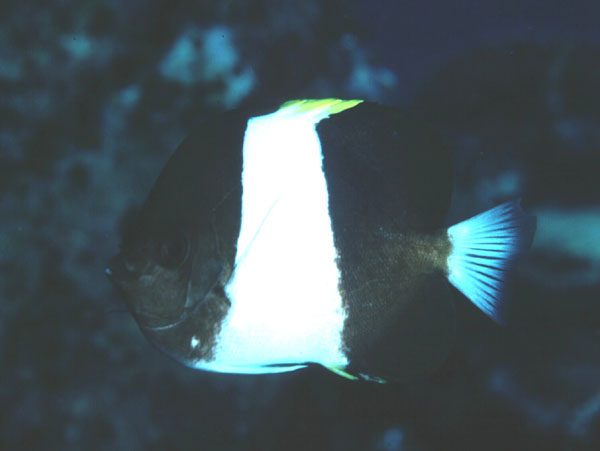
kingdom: Animalia
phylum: Chordata
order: Perciformes
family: Chaetodontidae
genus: Hemitaurichthys
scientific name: Hemitaurichthys zoster
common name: Brown-and-white butterflyfish
